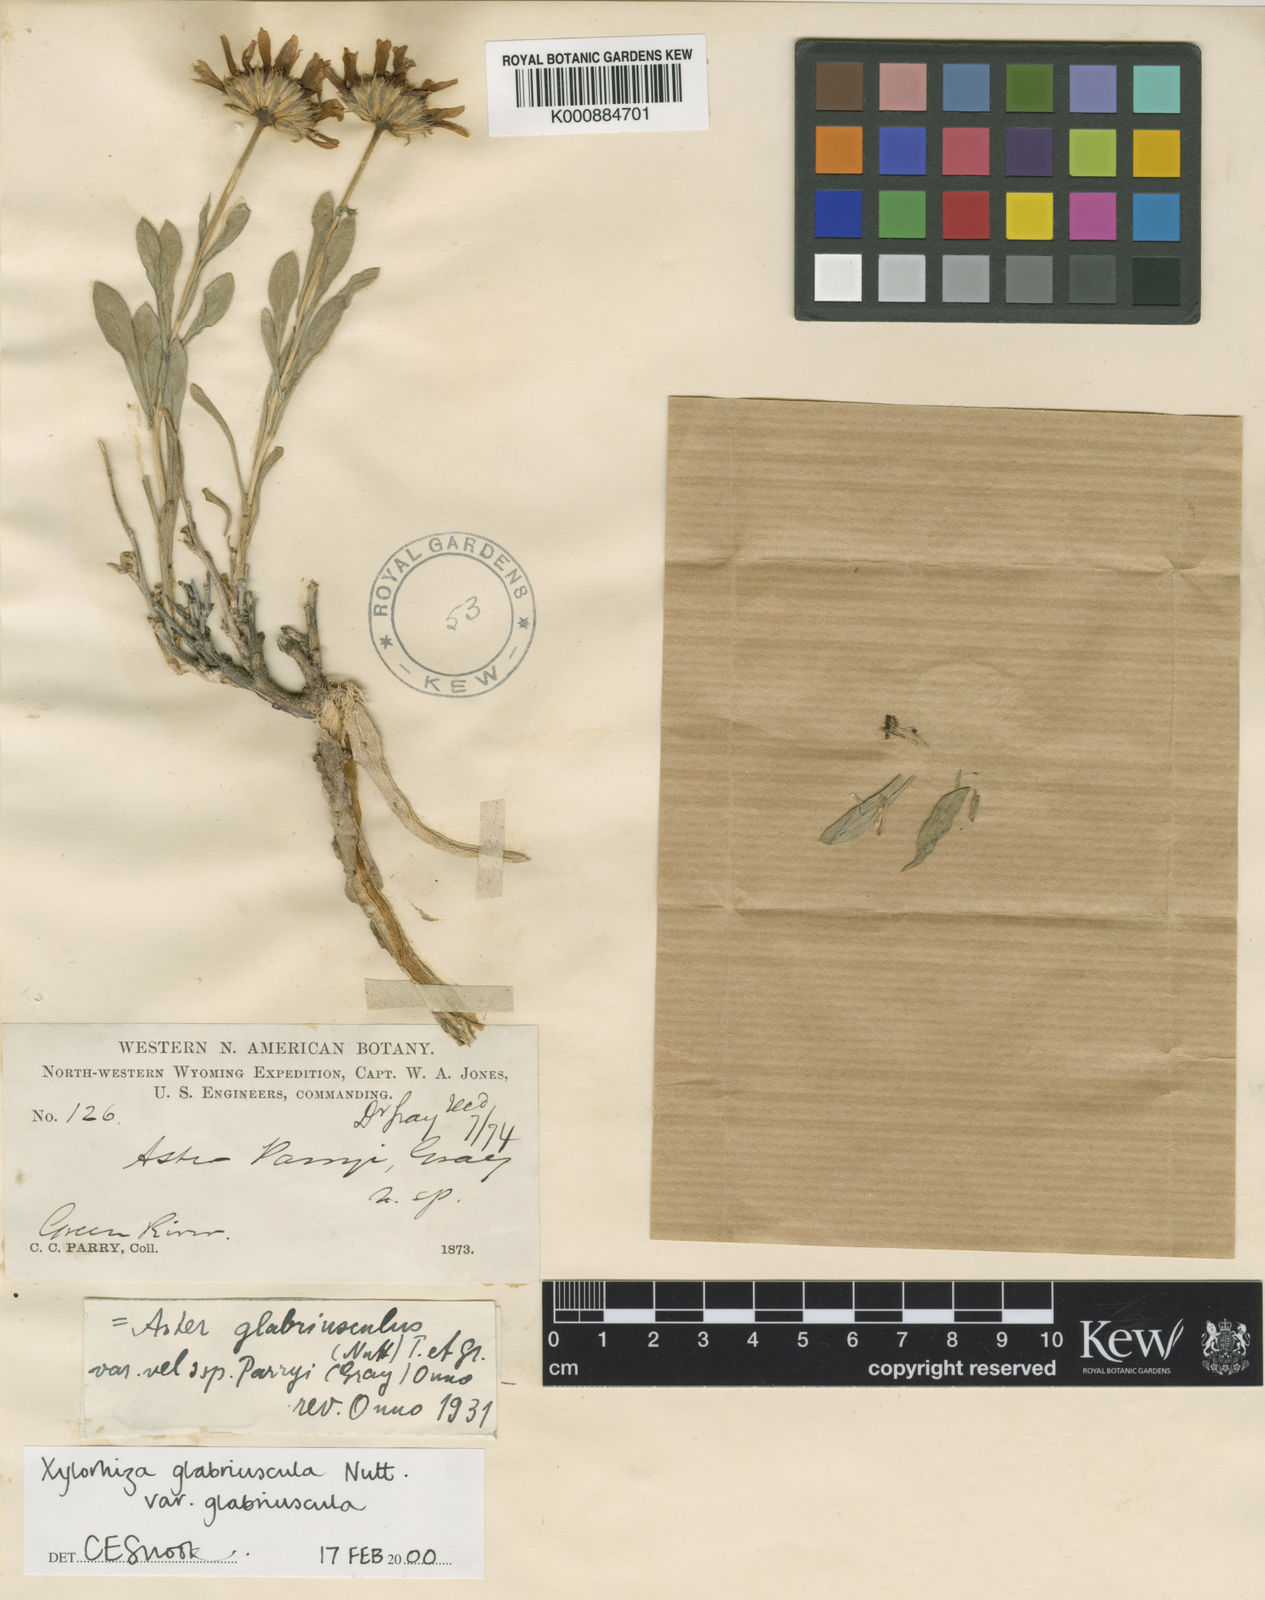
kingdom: Plantae
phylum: Tracheophyta
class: Magnoliopsida
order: Asterales
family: Asteraceae
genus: Xylorhiza
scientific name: Xylorhiza glabriuscula
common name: Smooth woody-aster
